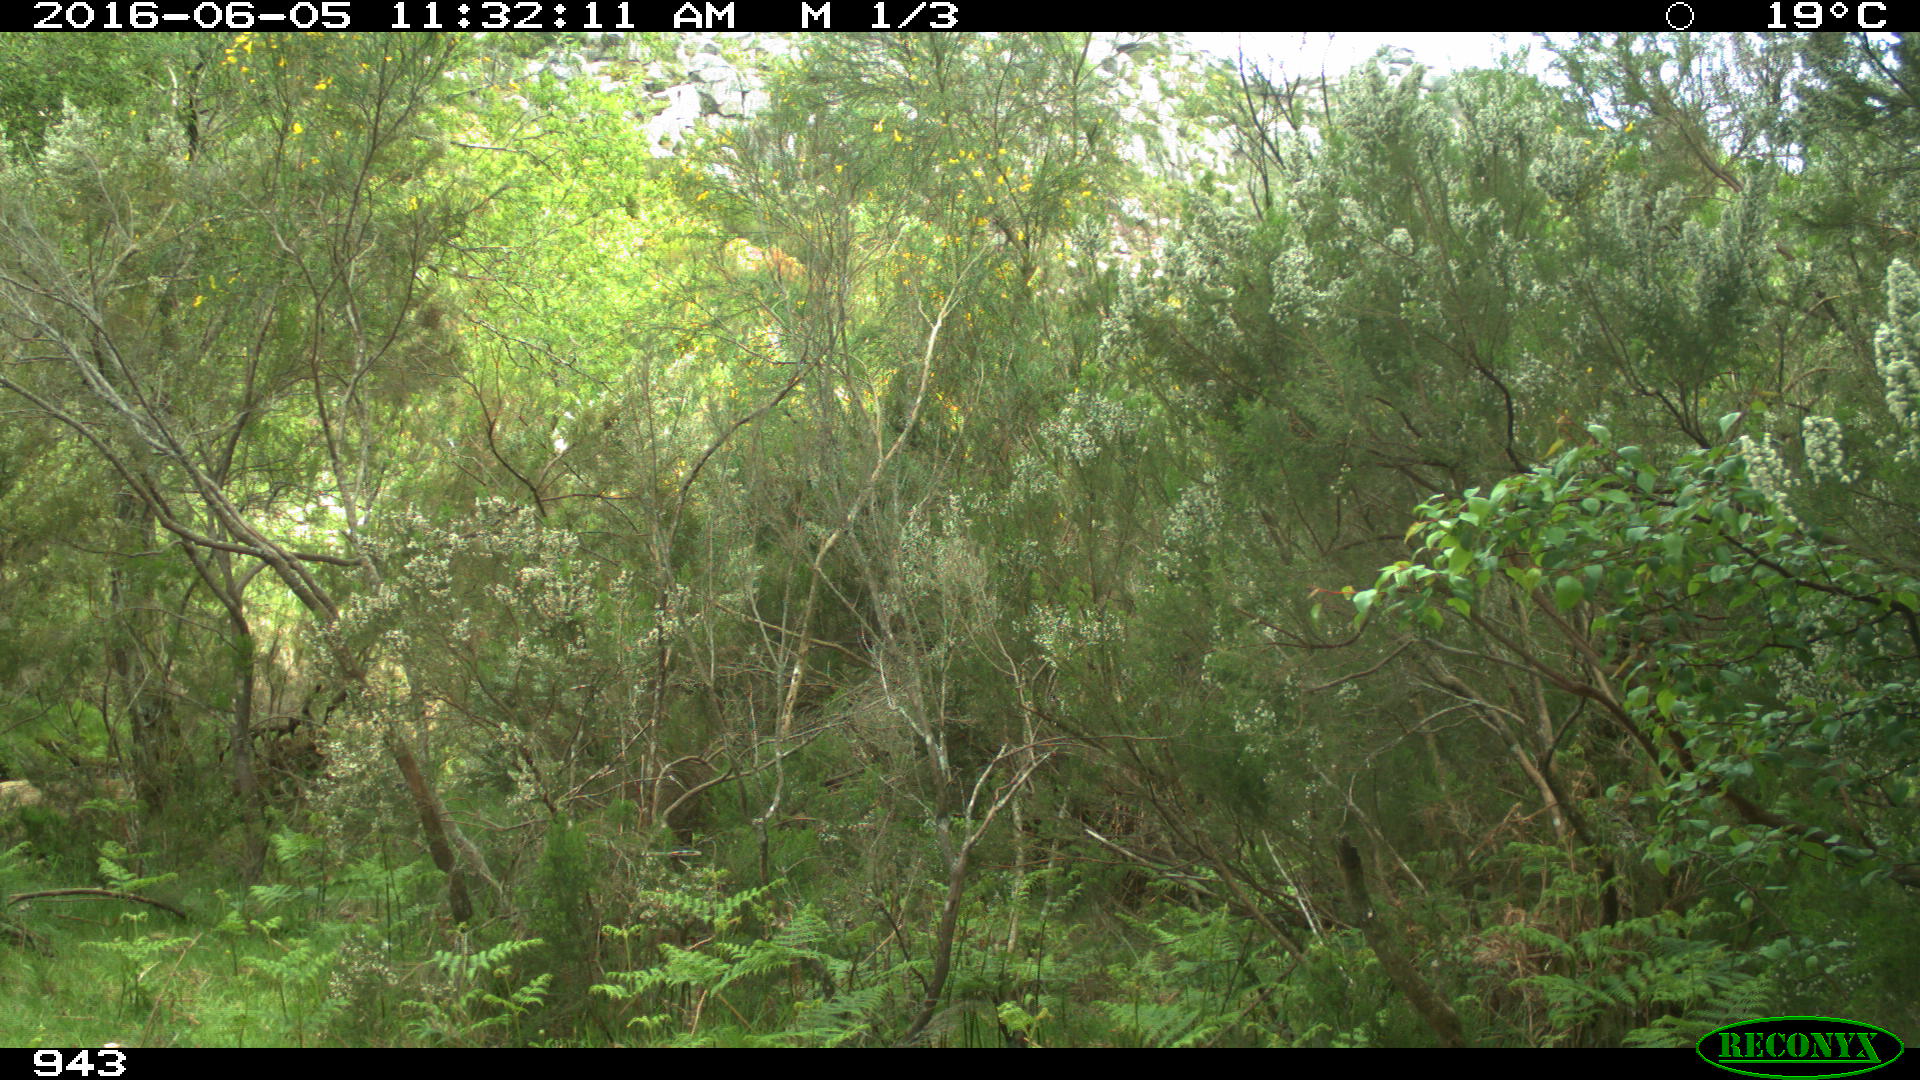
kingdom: Animalia
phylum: Chordata
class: Mammalia
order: Perissodactyla
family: Equidae
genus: Equus
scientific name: Equus caballus
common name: Horse
